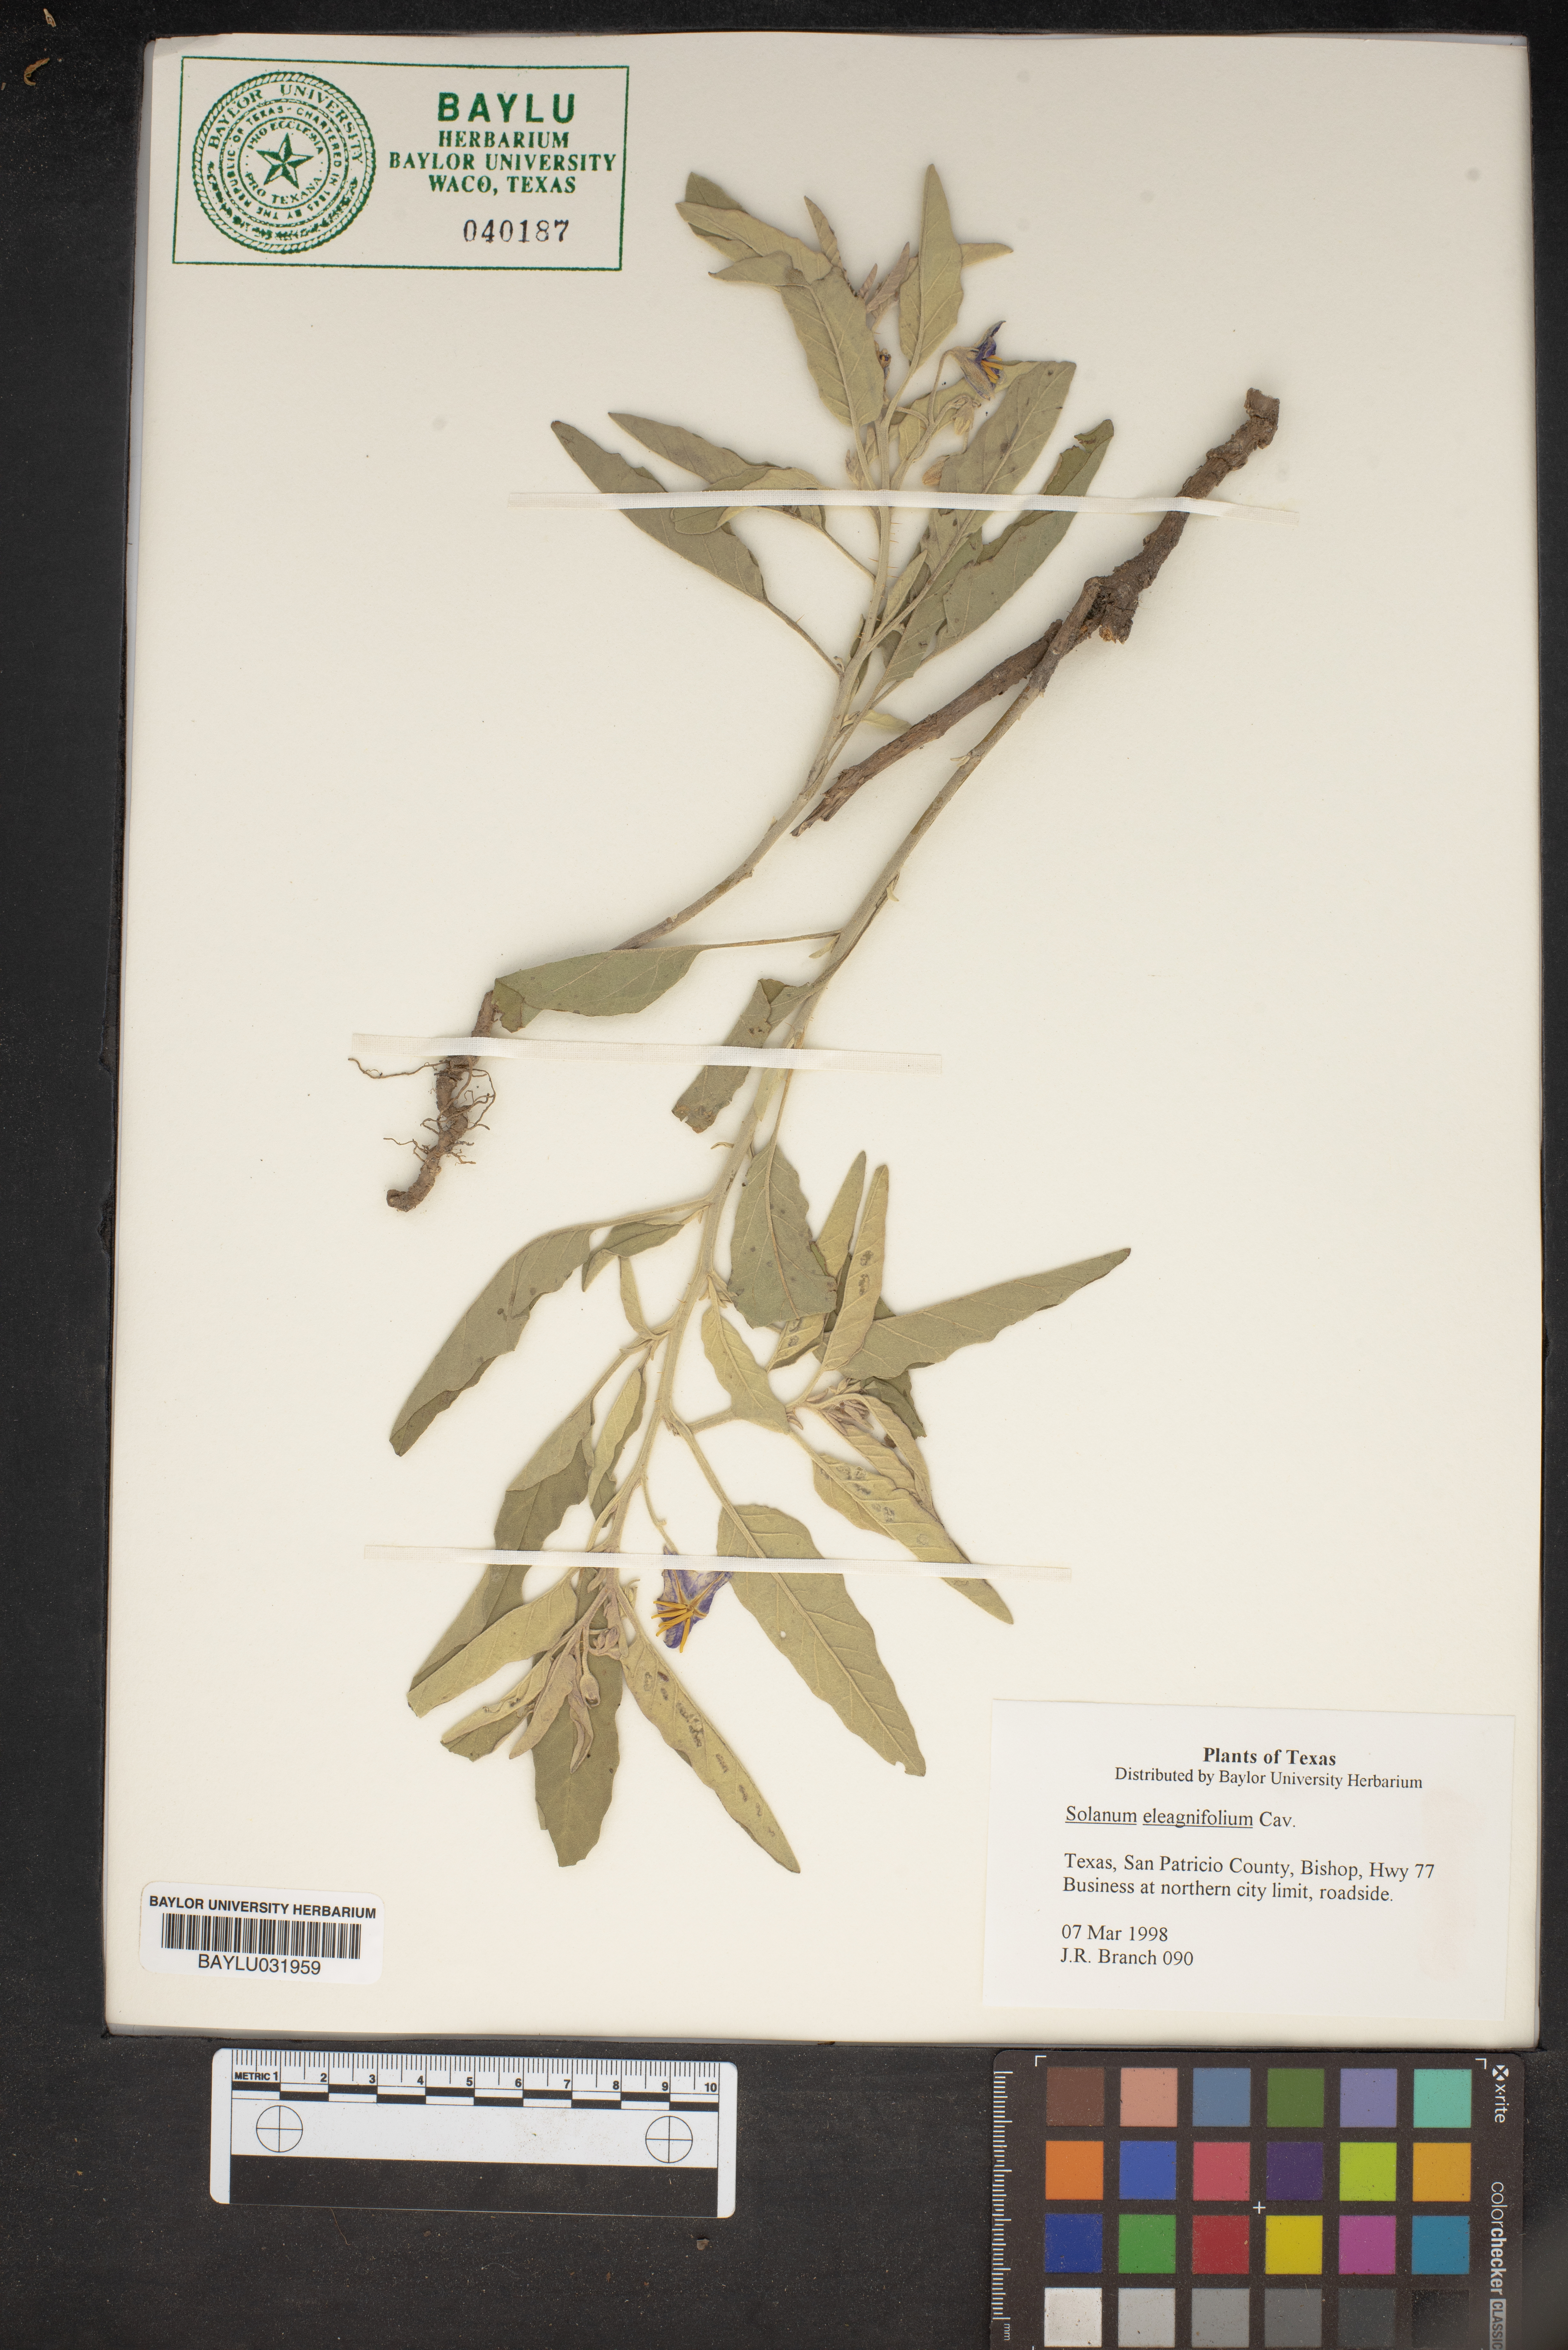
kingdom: Plantae
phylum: Tracheophyta
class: Magnoliopsida
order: Solanales
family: Solanaceae
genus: Solanum
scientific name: Solanum elaeagnifolium
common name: Silverleaf nightshade
